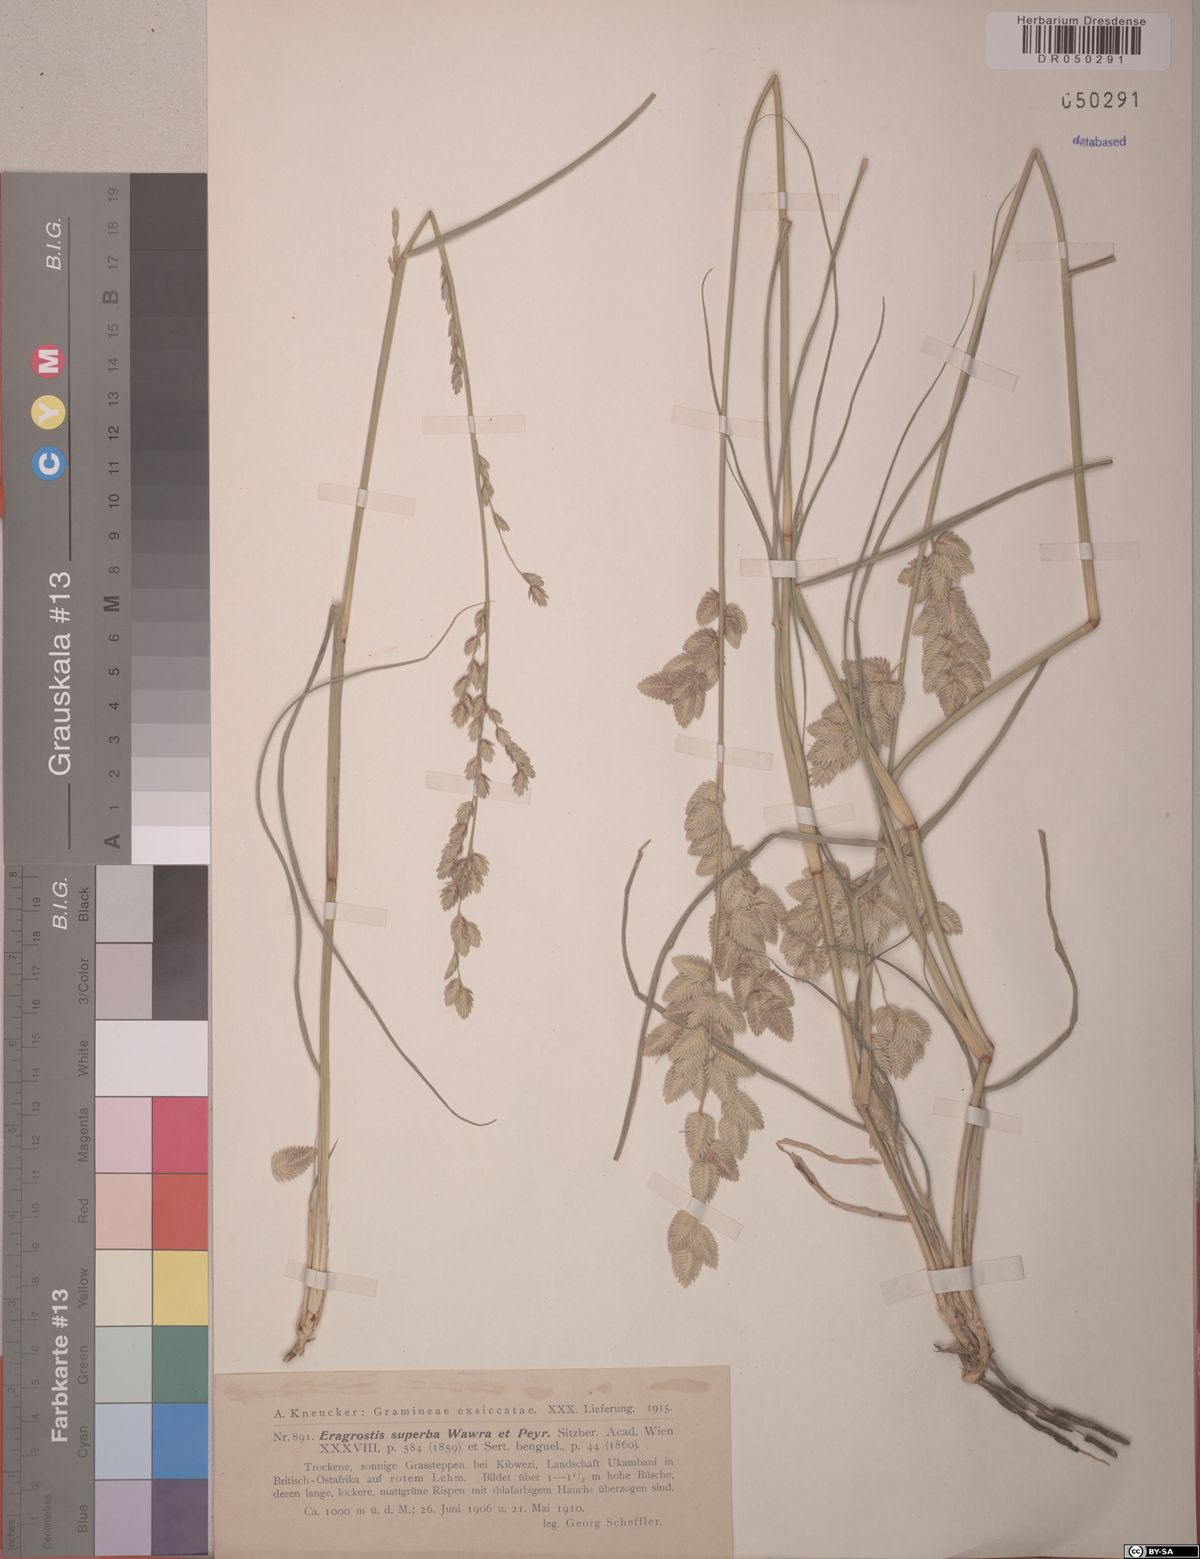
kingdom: Plantae
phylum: Tracheophyta
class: Liliopsida
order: Poales
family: Poaceae
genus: Eragrostis
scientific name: Eragrostis superba
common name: Wilman lovegrass
